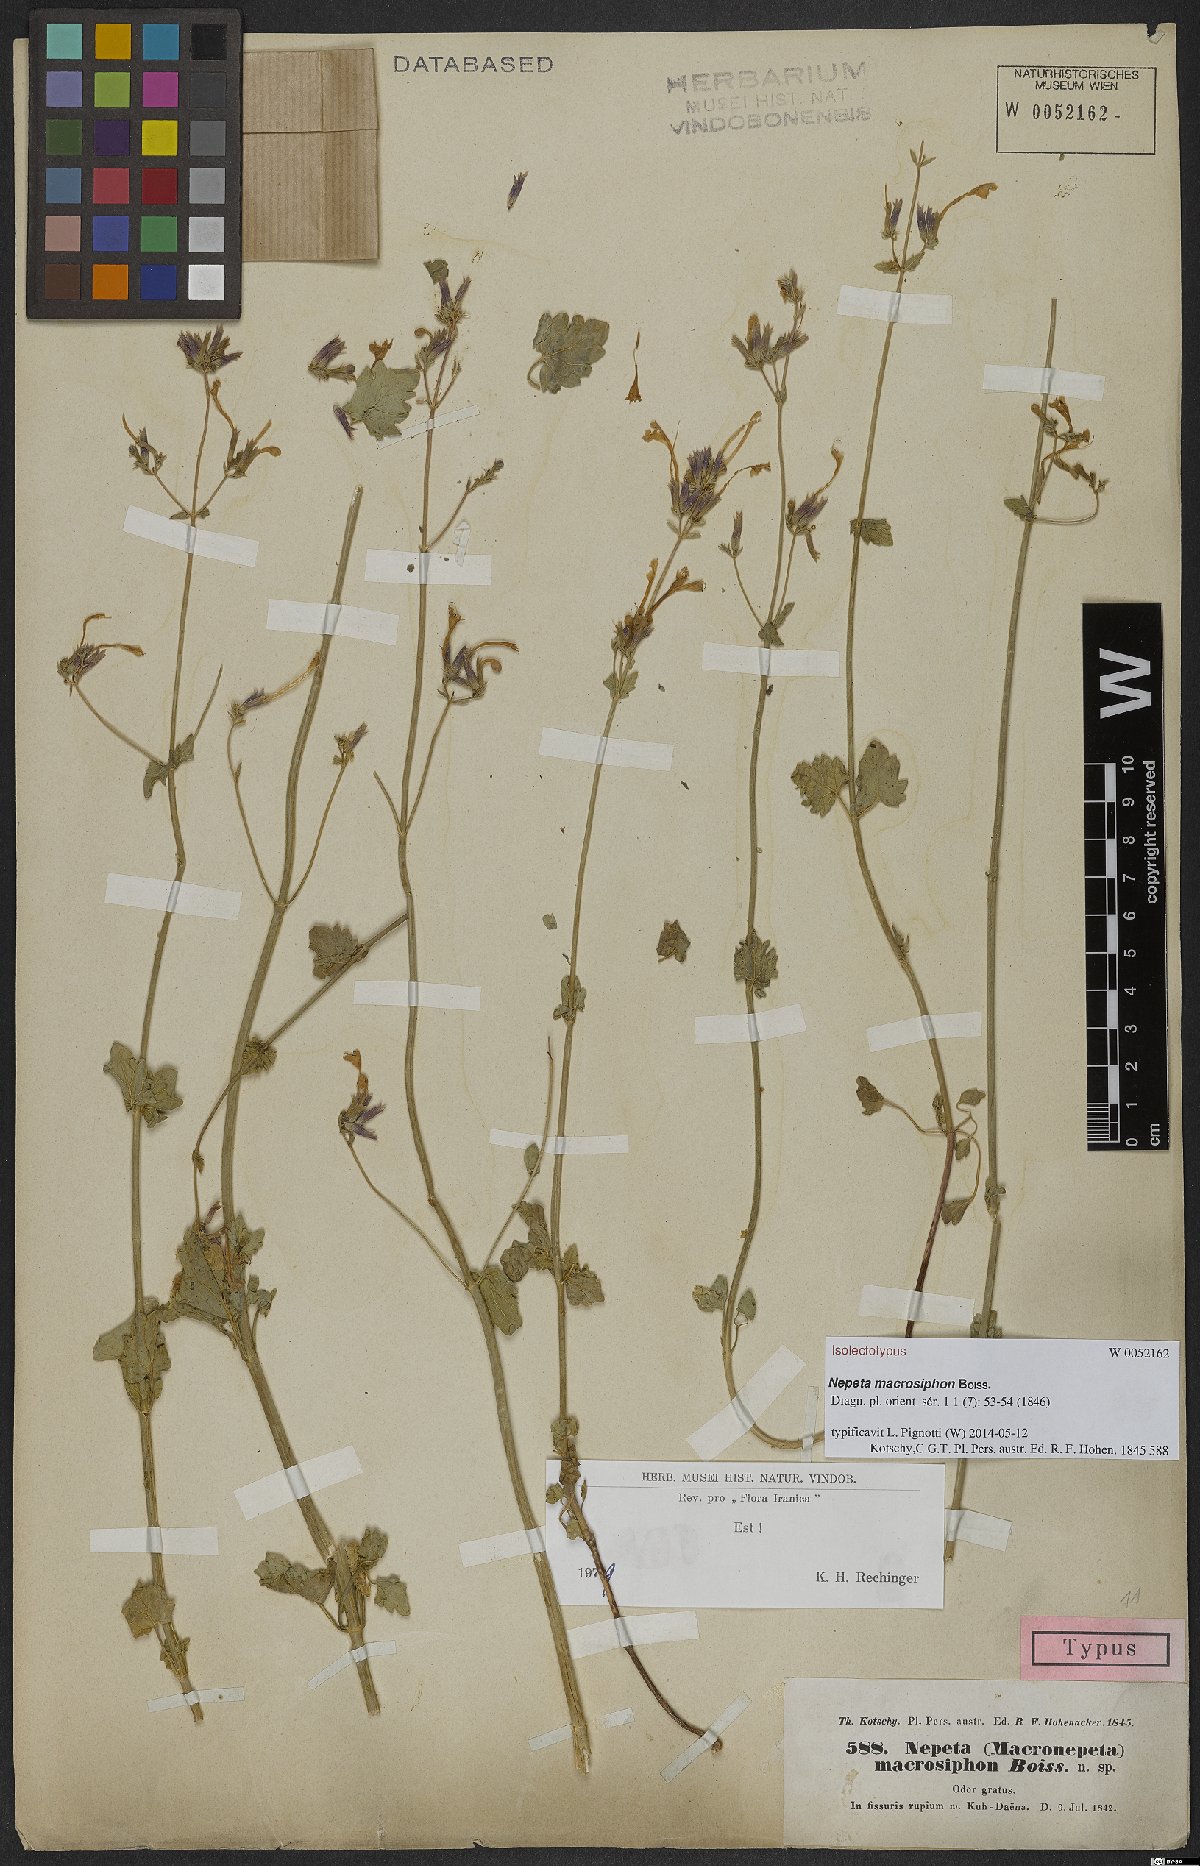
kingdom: Plantae
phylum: Tracheophyta
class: Magnoliopsida
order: Lamiales
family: Lamiaceae
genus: Nepeta
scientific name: Nepeta macrosiphon
